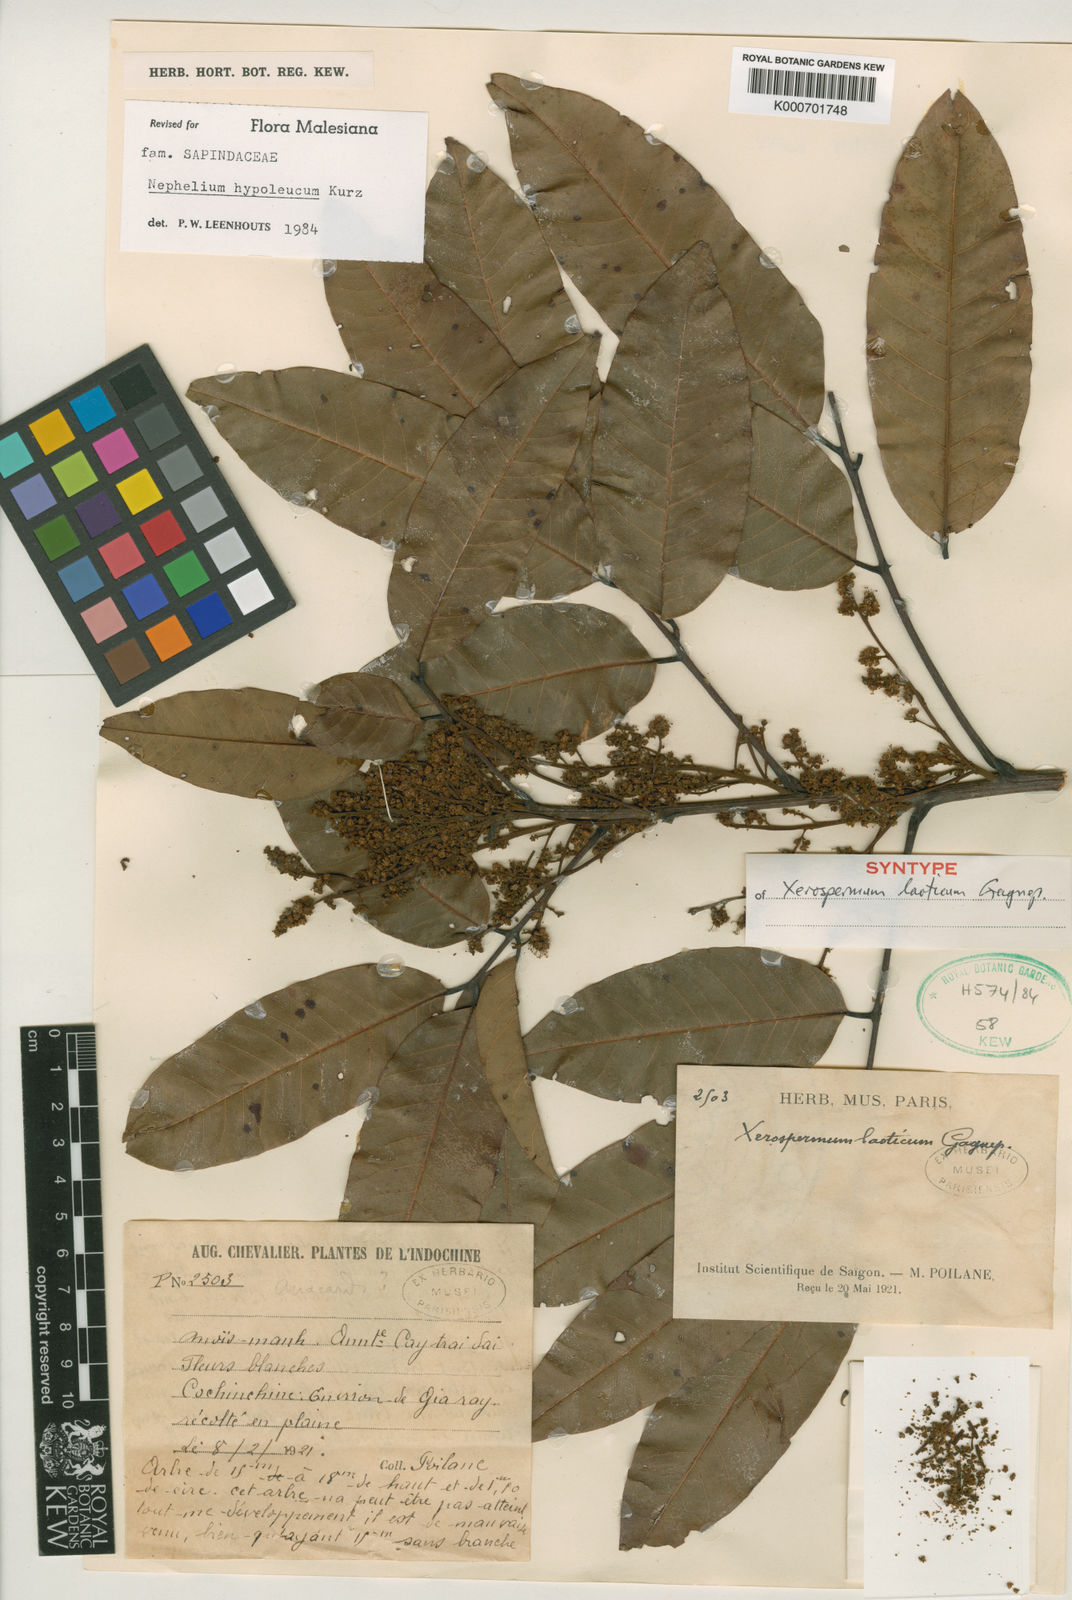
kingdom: Plantae
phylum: Tracheophyta
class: Magnoliopsida
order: Sapindales
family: Sapindaceae
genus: Nephelium
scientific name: Nephelium hypoleucum
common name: Korlan
